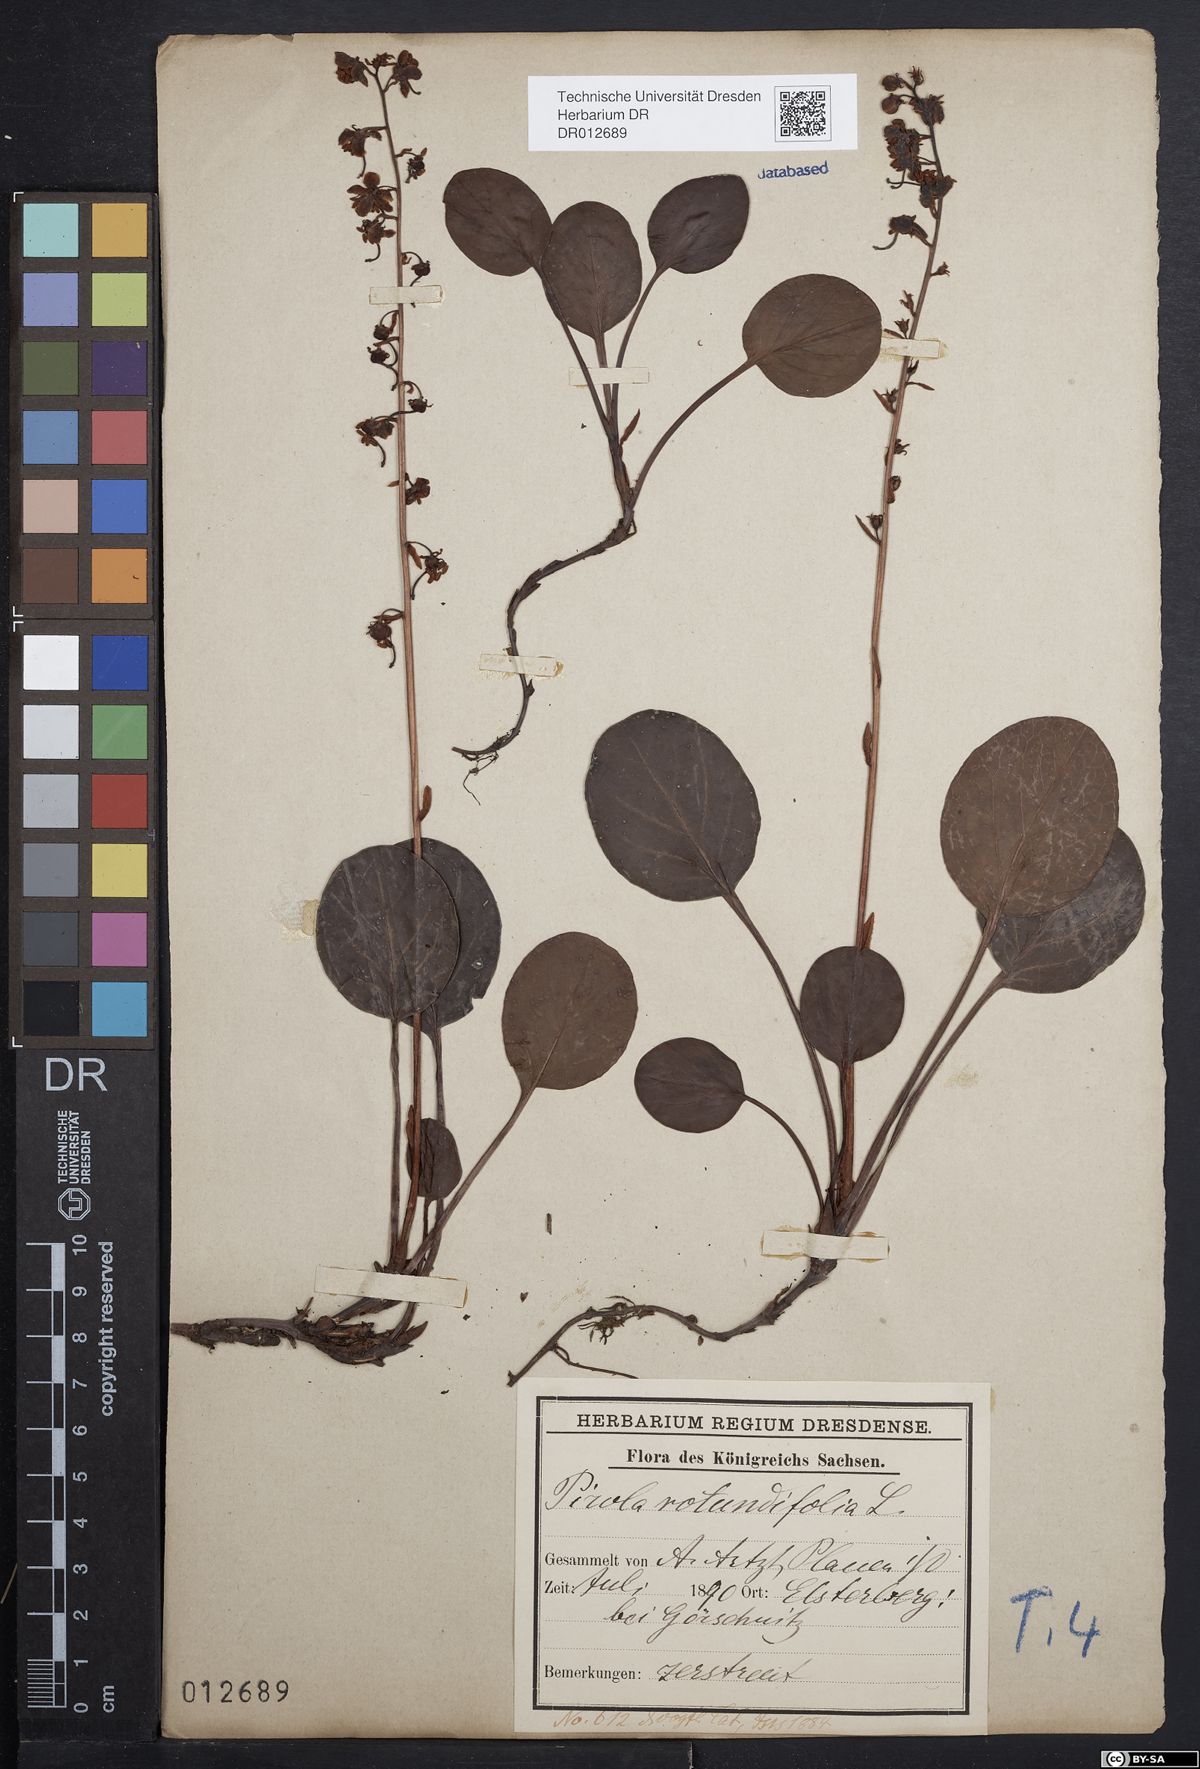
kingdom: Plantae
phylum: Tracheophyta
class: Magnoliopsida
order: Ericales
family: Ericaceae
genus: Pyrola
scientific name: Pyrola rotundifolia
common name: Round-leaved wintergreen
